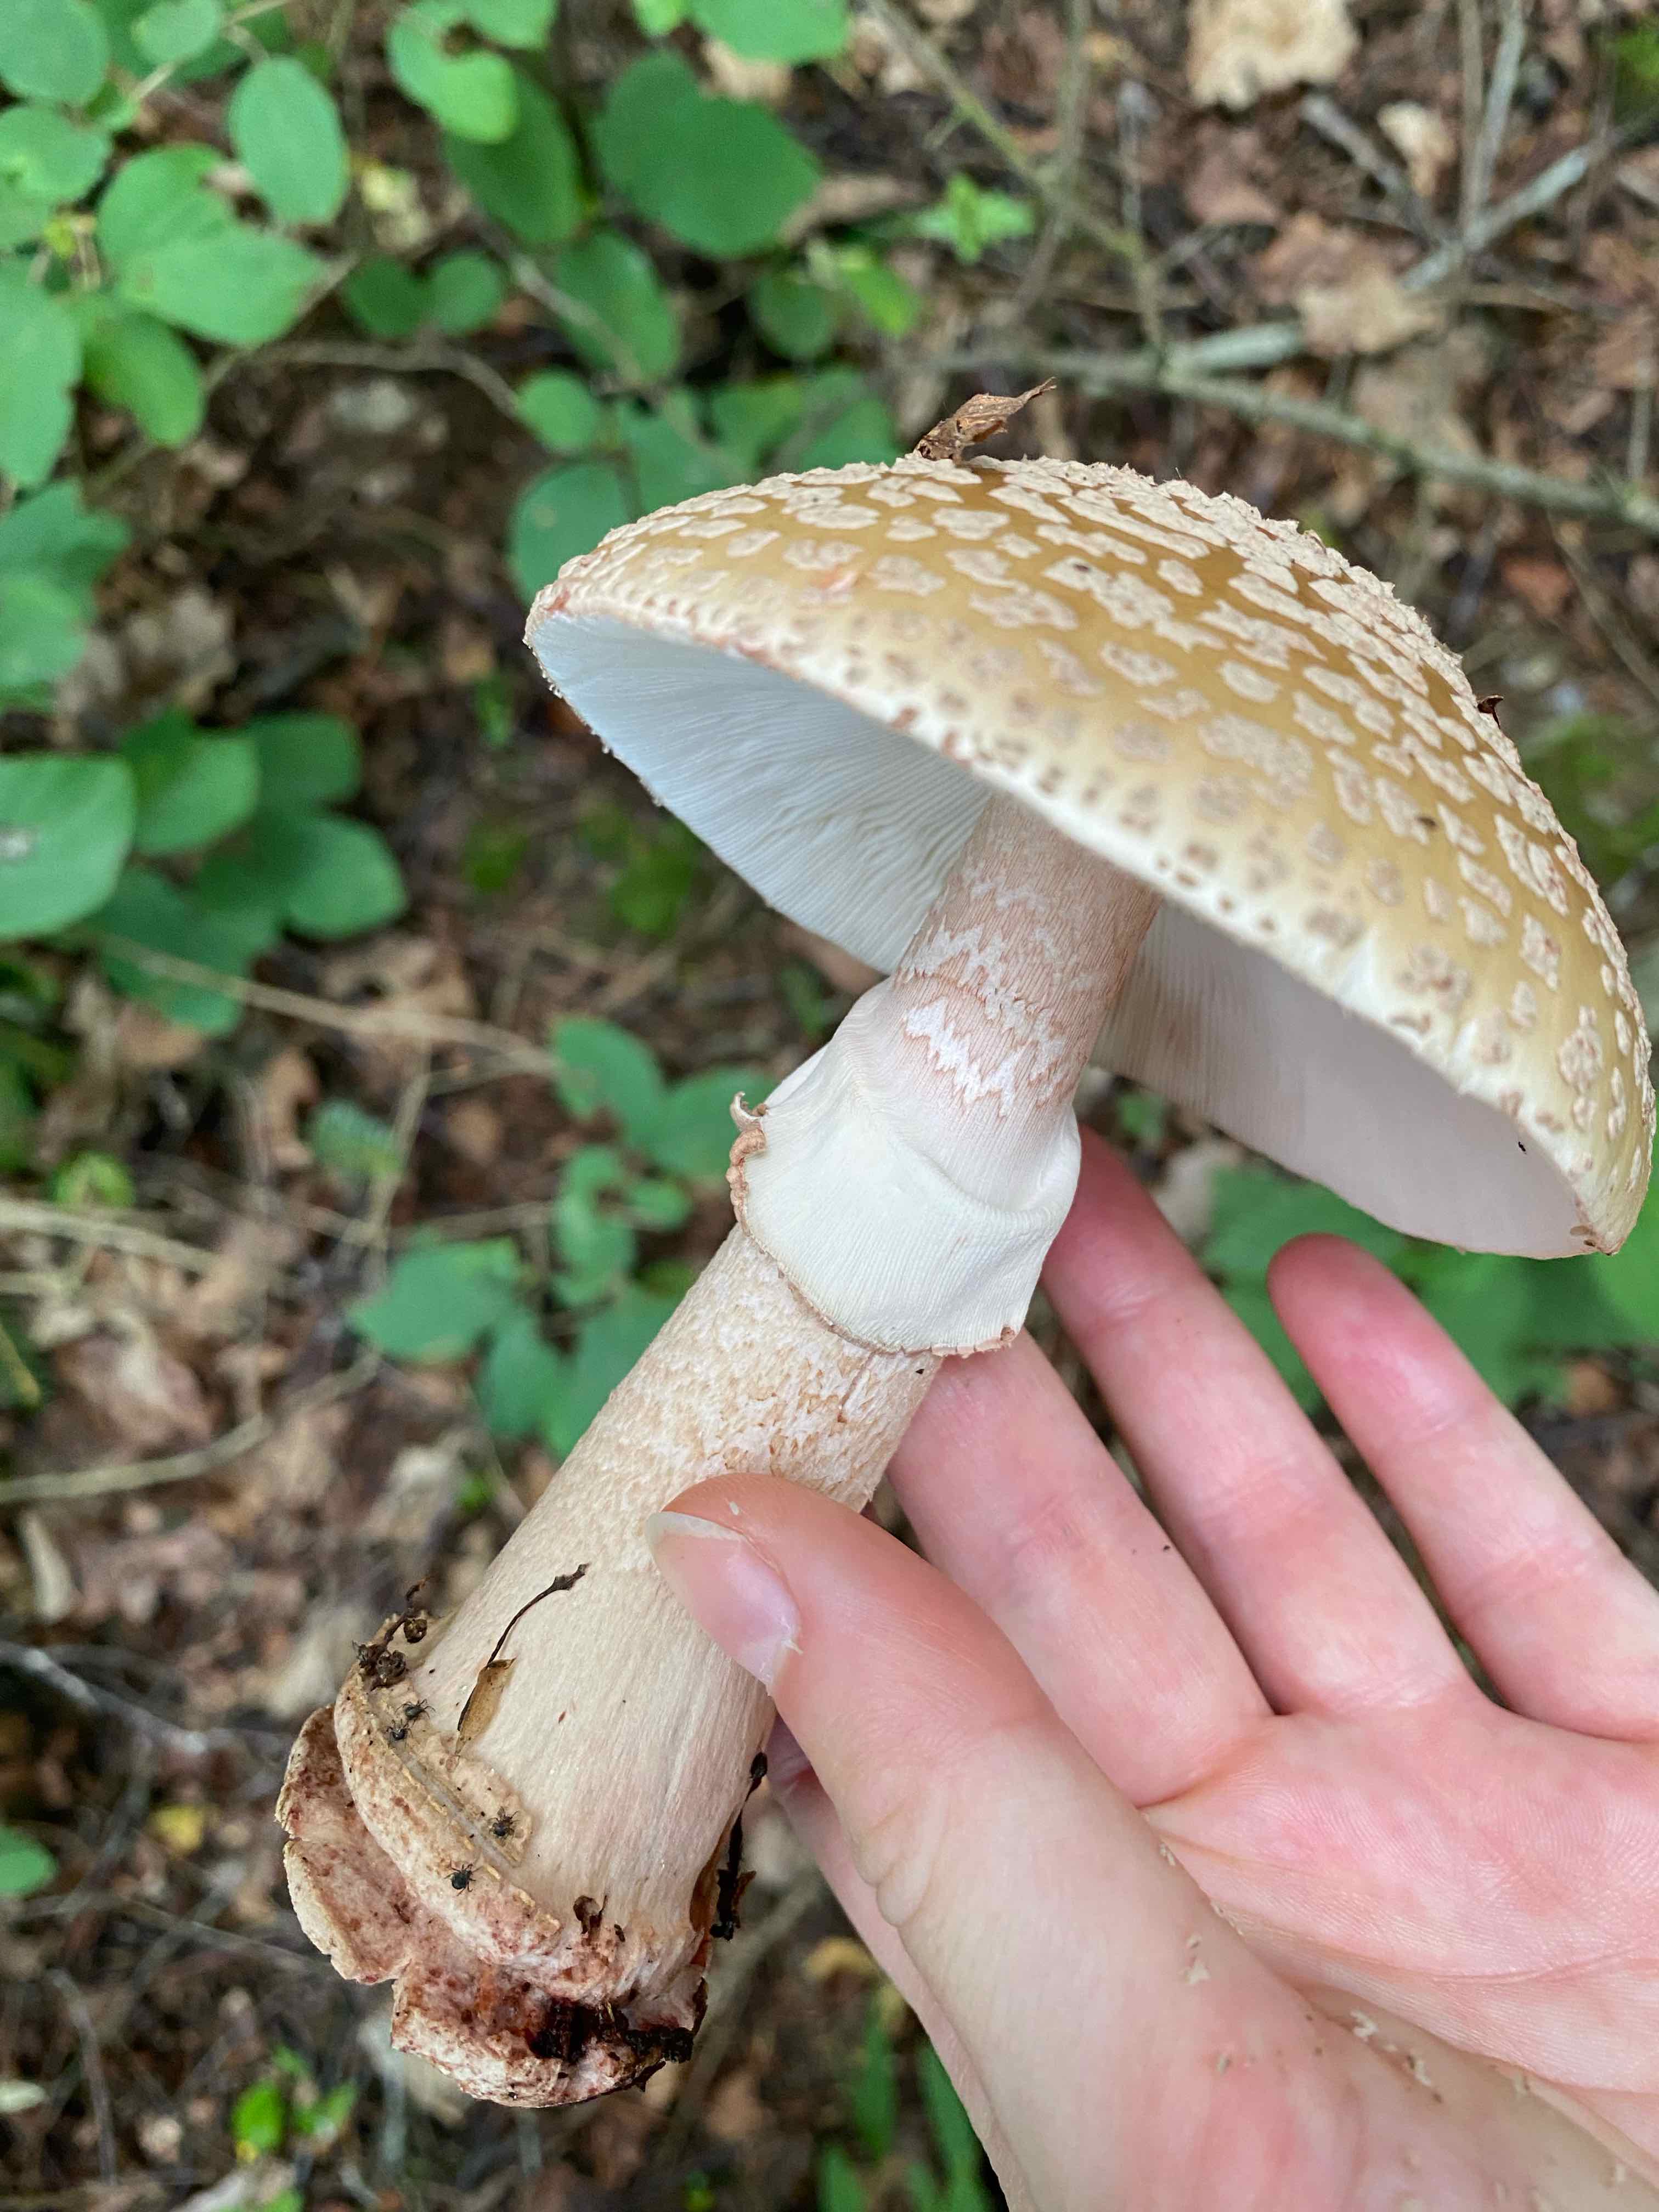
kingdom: Fungi
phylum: Basidiomycota
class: Agaricomycetes
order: Agaricales
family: Amanitaceae
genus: Amanita
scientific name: Amanita rubescens
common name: rødmende fluesvamp
